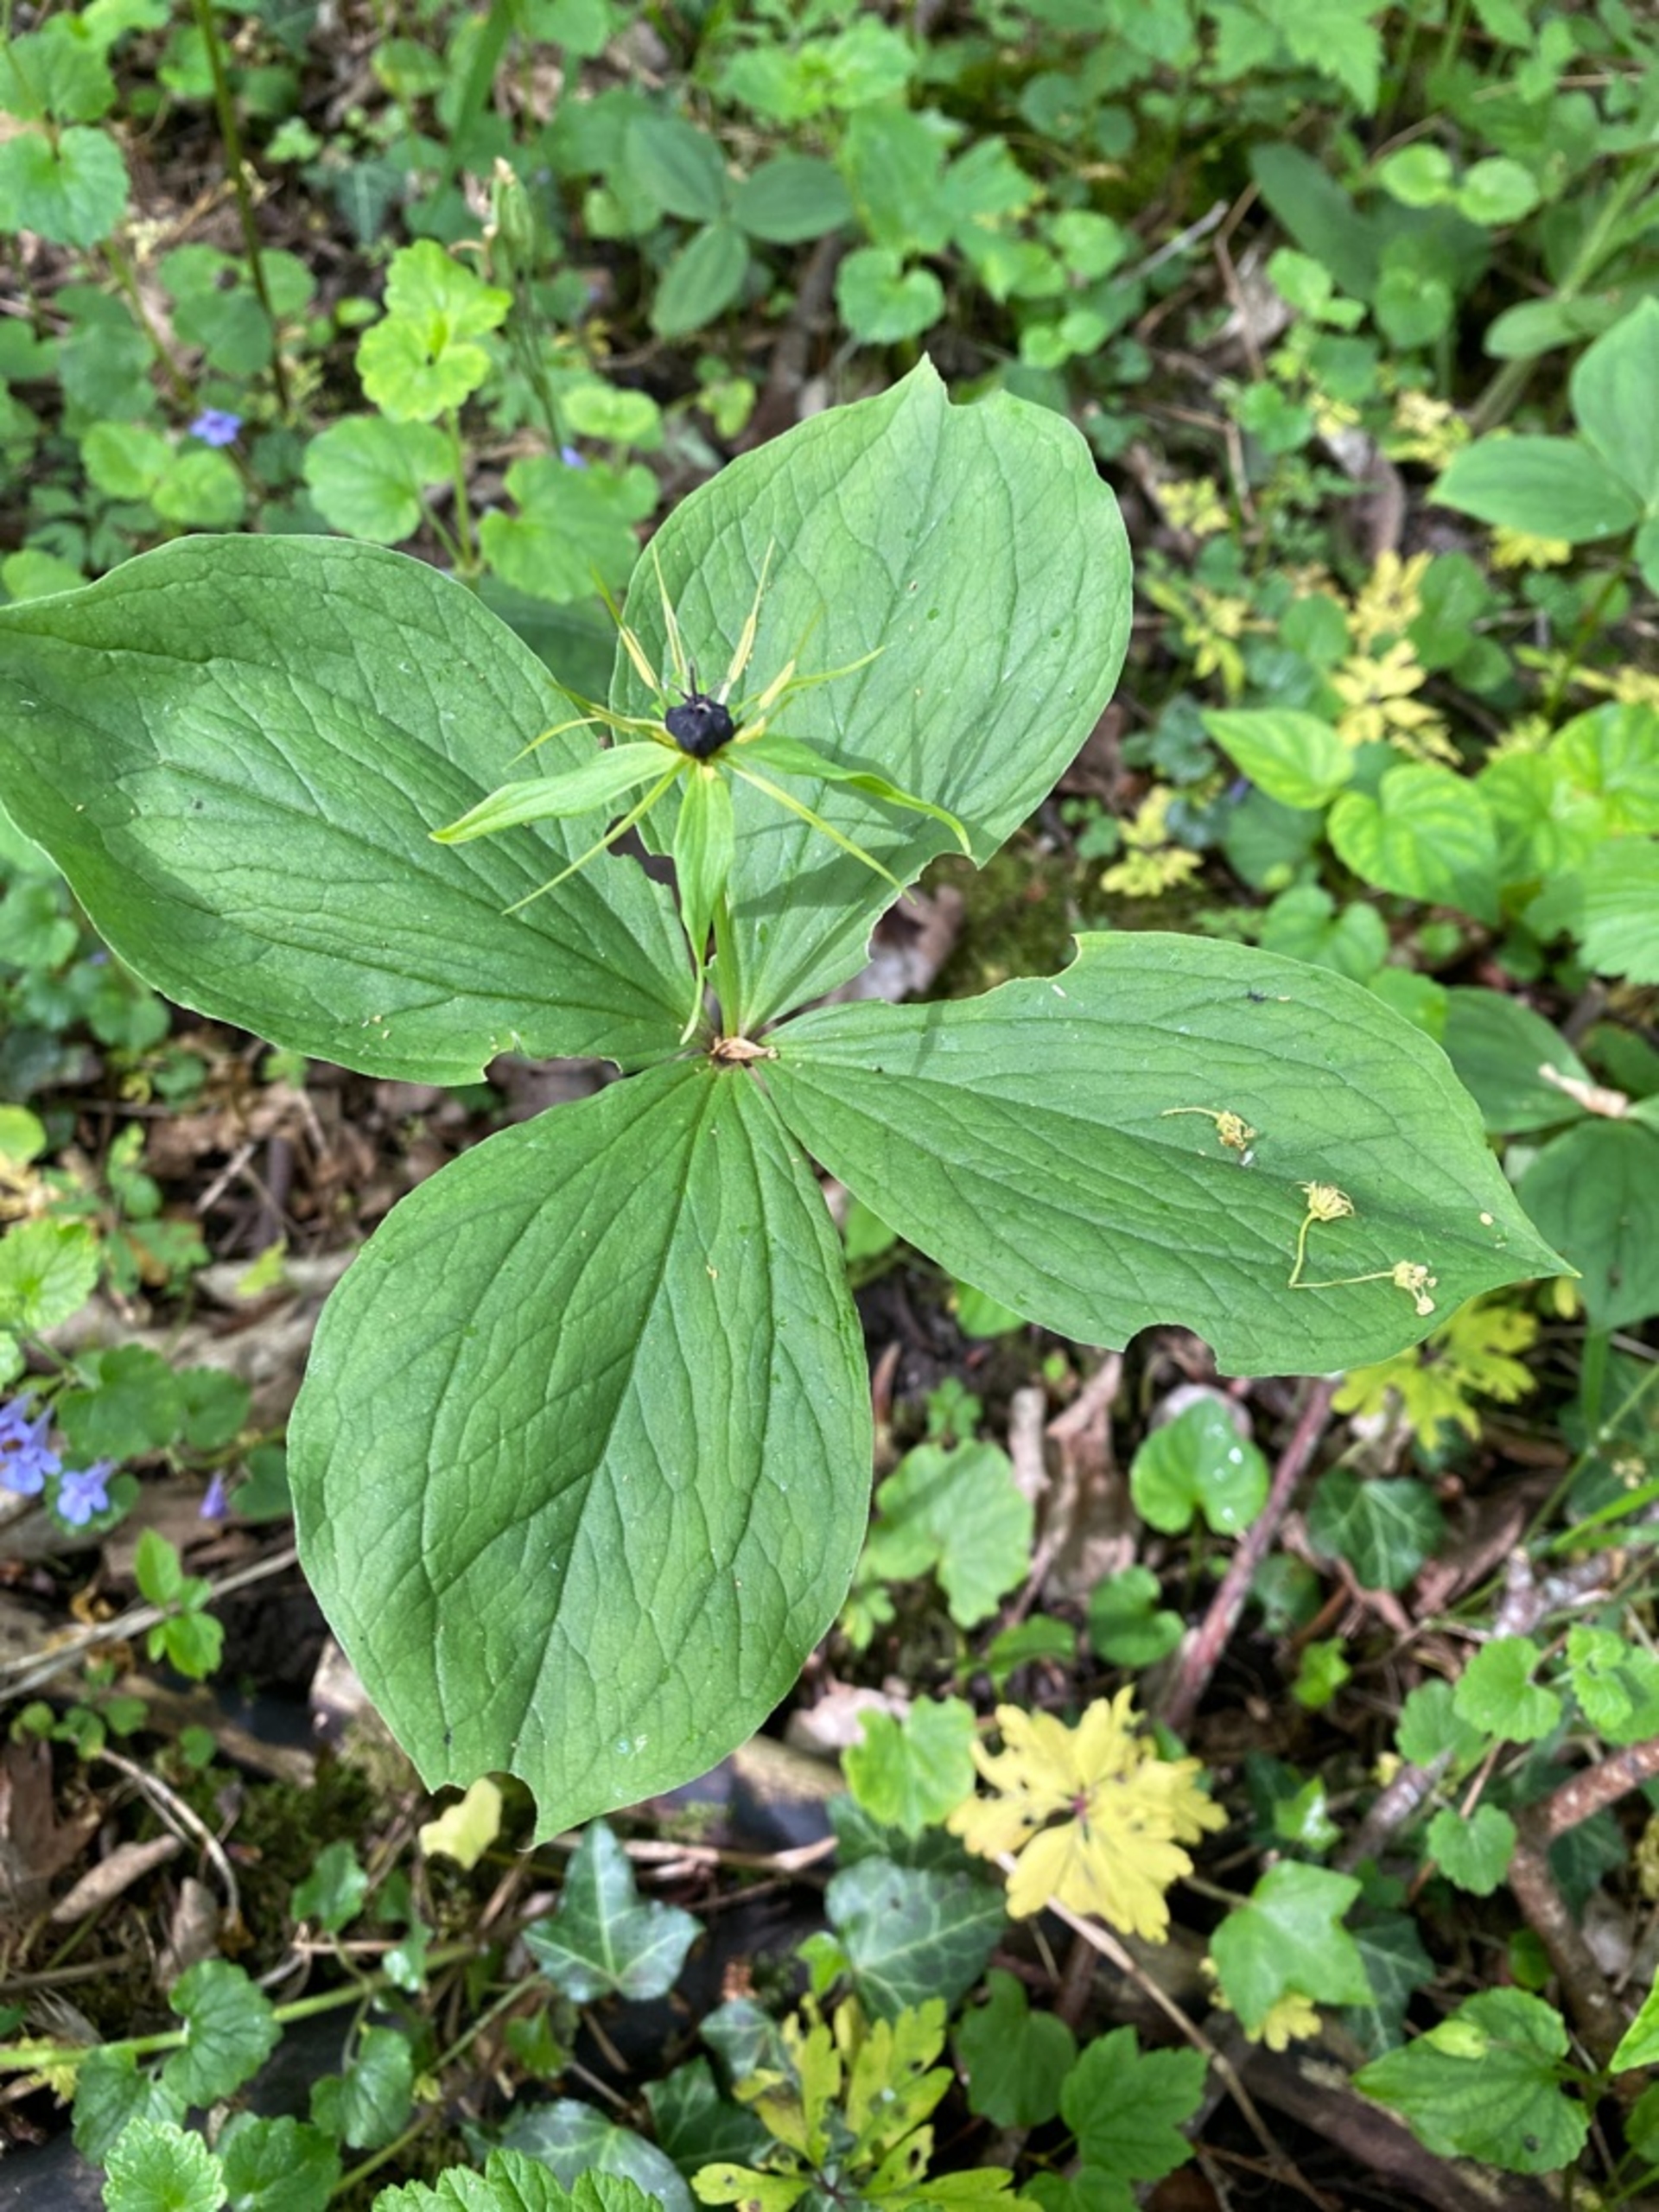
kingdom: Plantae
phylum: Tracheophyta
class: Liliopsida
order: Liliales
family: Melanthiaceae
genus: Paris
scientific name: Paris quadrifolia
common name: Firblad
